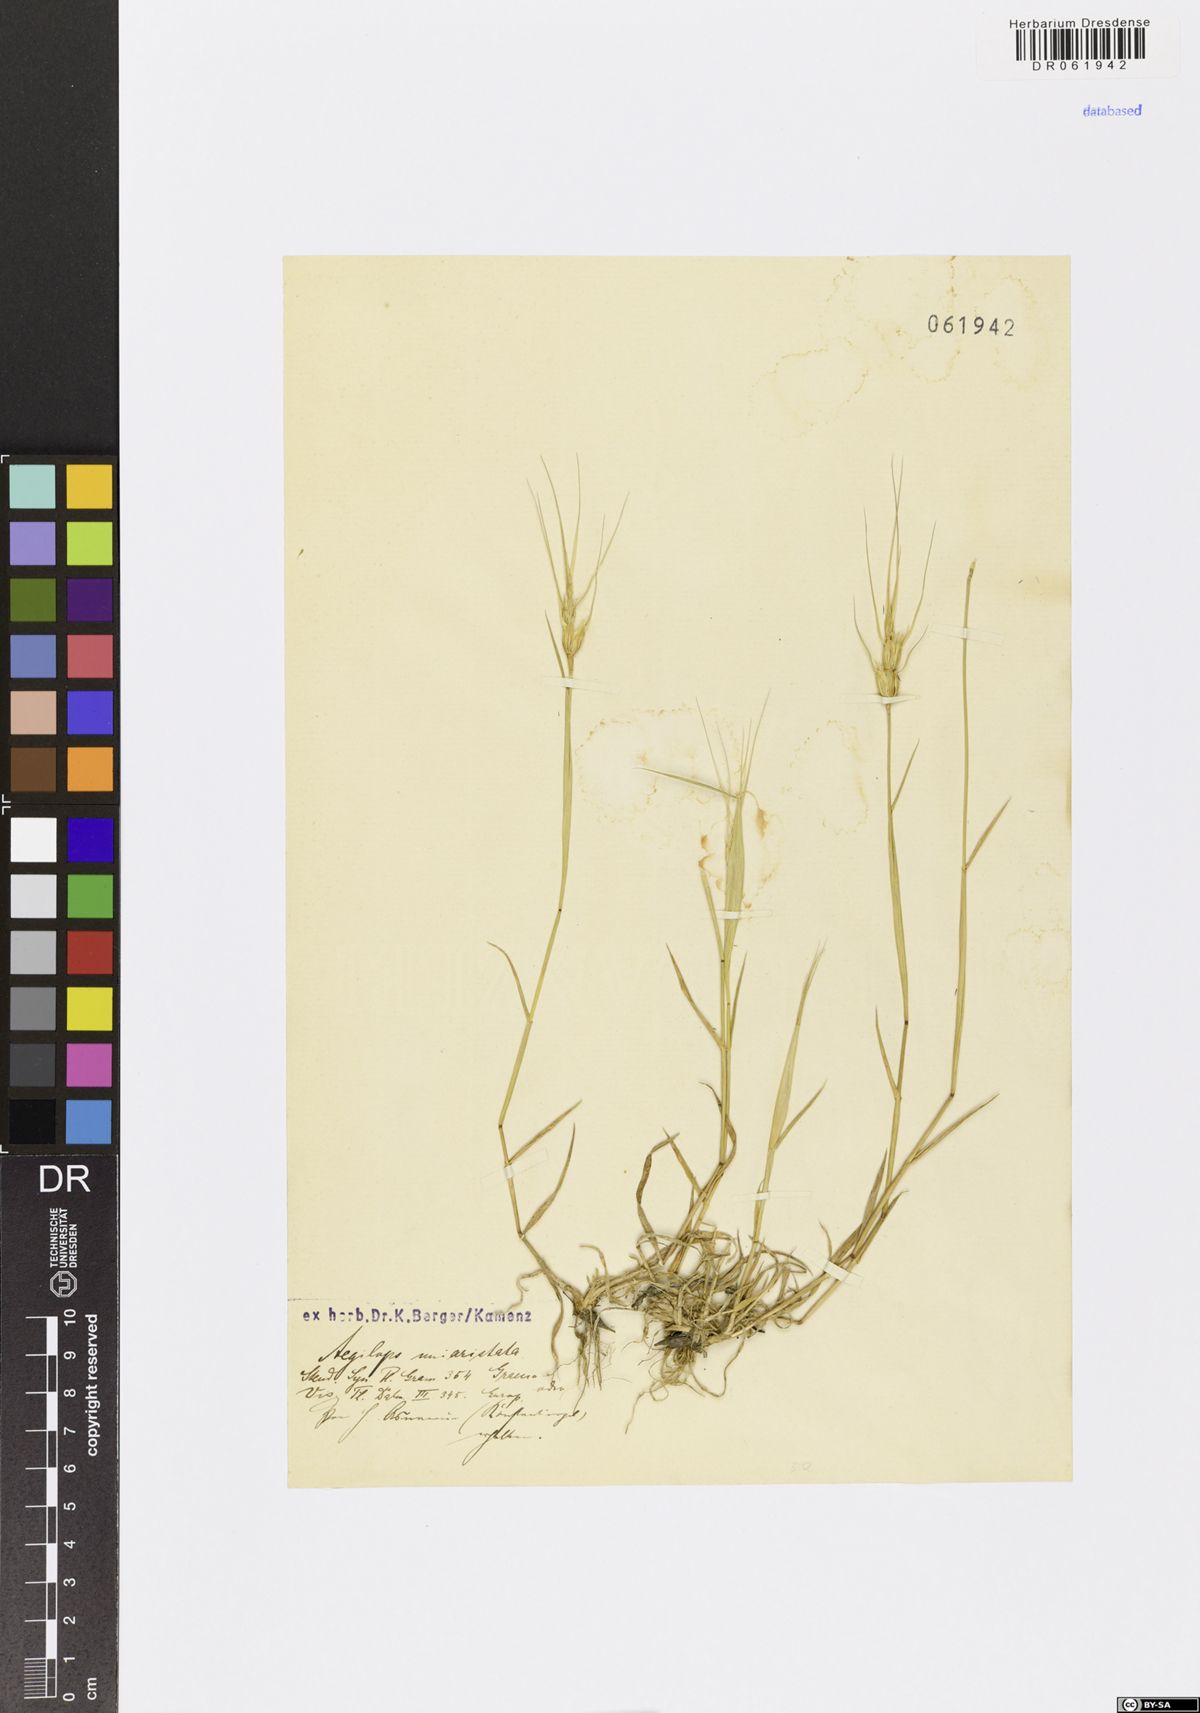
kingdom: Plantae
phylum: Tracheophyta
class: Liliopsida
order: Poales
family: Poaceae
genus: Aegilops
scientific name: Aegilops uniaristata
